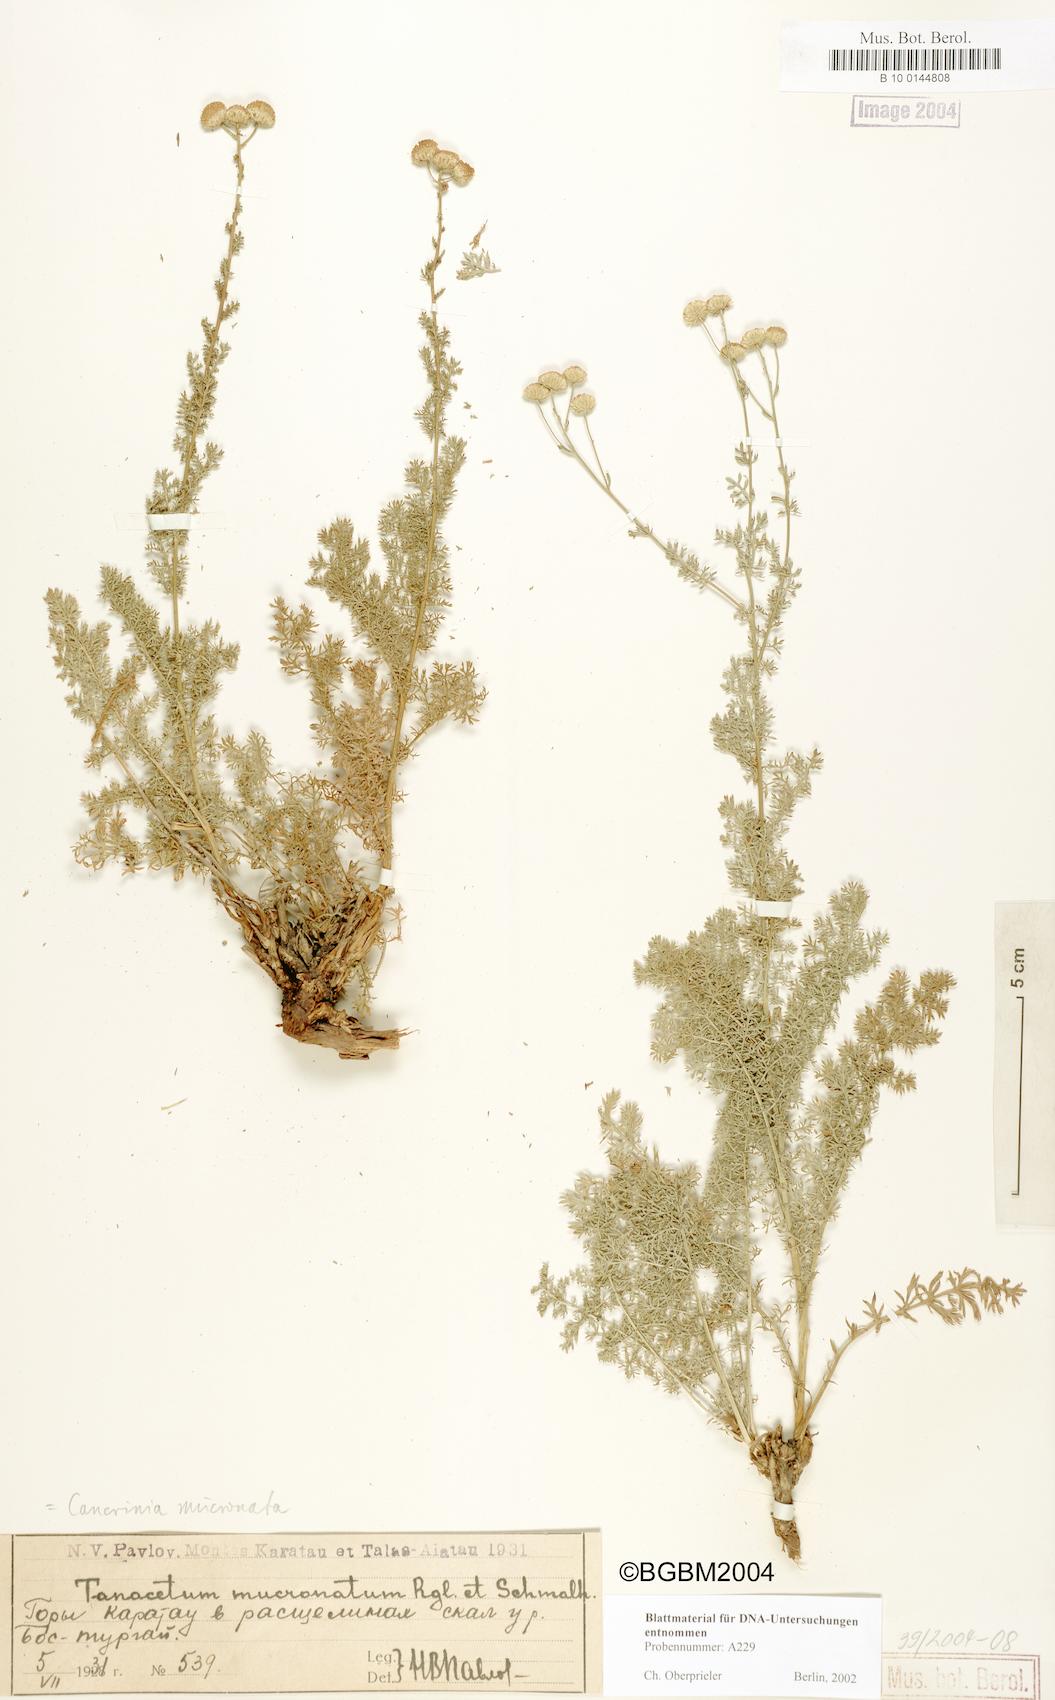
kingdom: Plantae
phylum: Tracheophyta
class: Magnoliopsida
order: Asterales
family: Asteraceae
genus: Tanacetopsis
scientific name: Tanacetopsis mucronata
